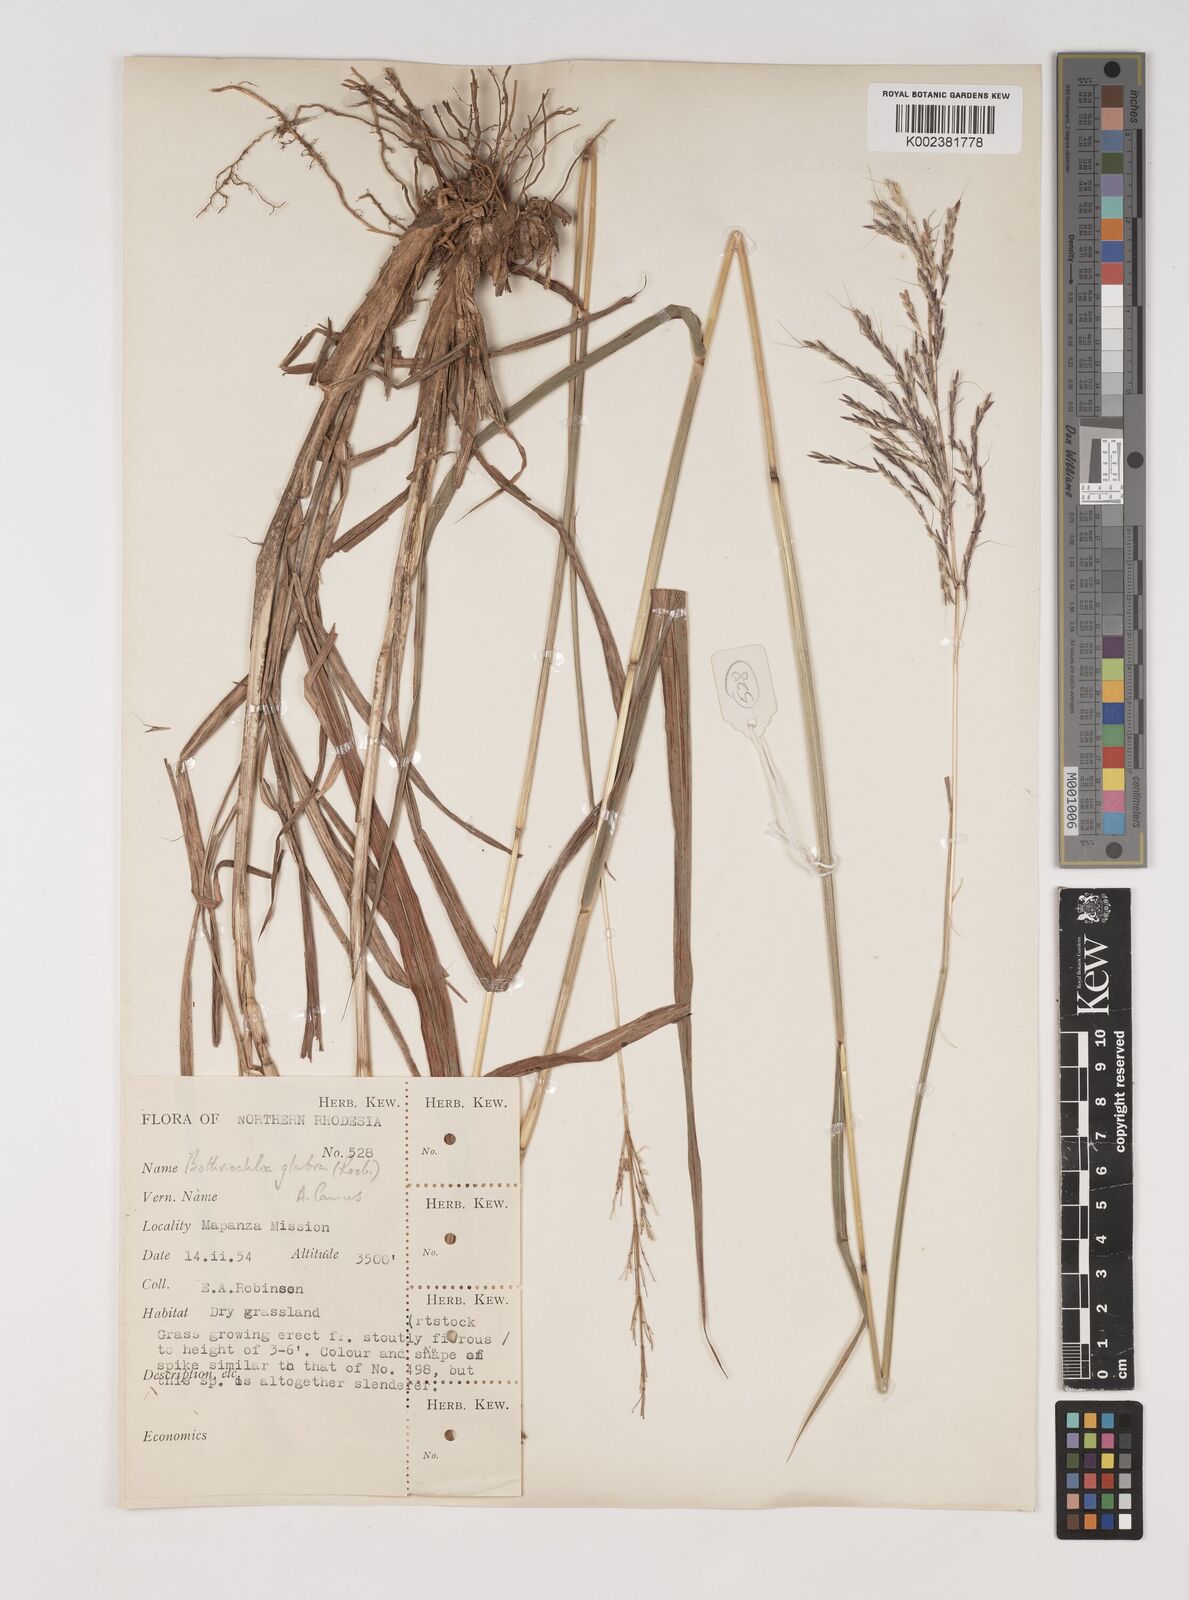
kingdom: Plantae
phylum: Tracheophyta
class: Liliopsida
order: Poales
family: Poaceae
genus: Bothriochloa
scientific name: Bothriochloa bladhii
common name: Caucasian bluestem
